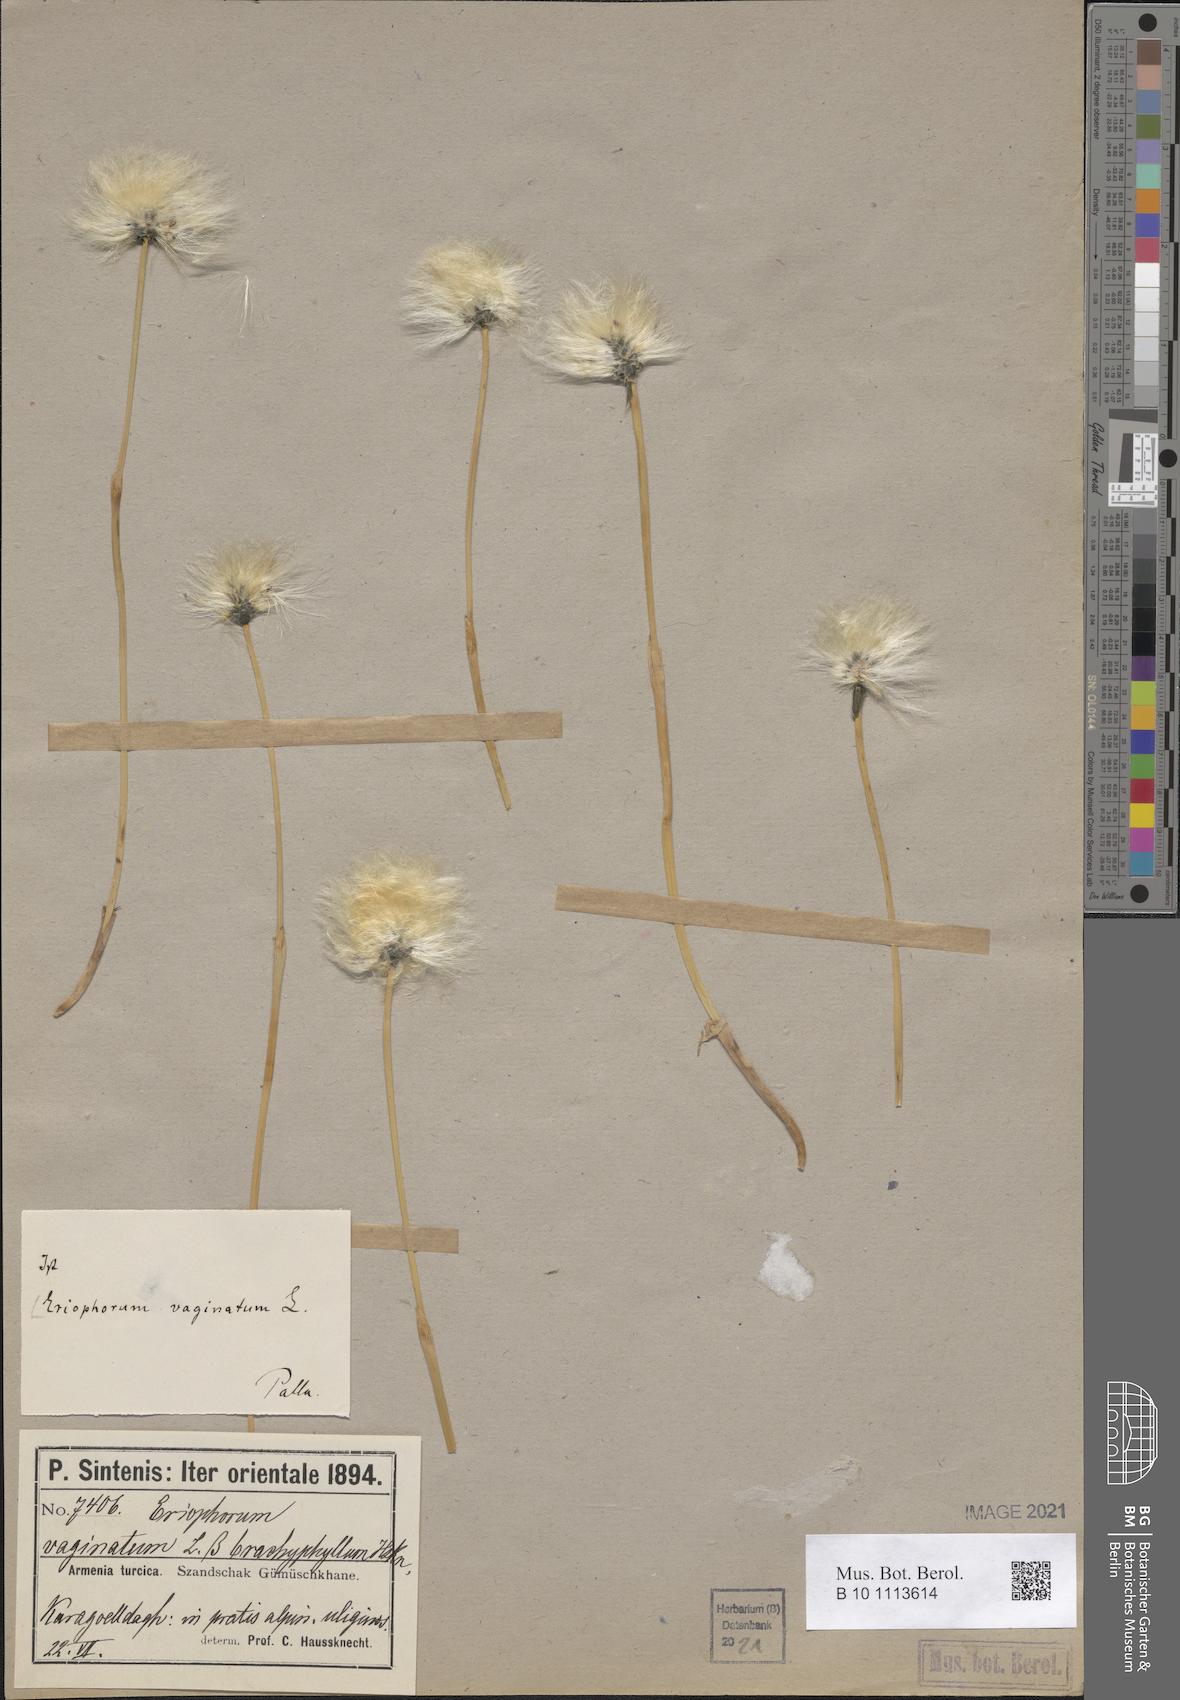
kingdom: Plantae
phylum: Tracheophyta
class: Liliopsida
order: Poales
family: Cyperaceae
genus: Eriophorum
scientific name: Eriophorum vaginatum
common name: Hare's-tail cottongrass
